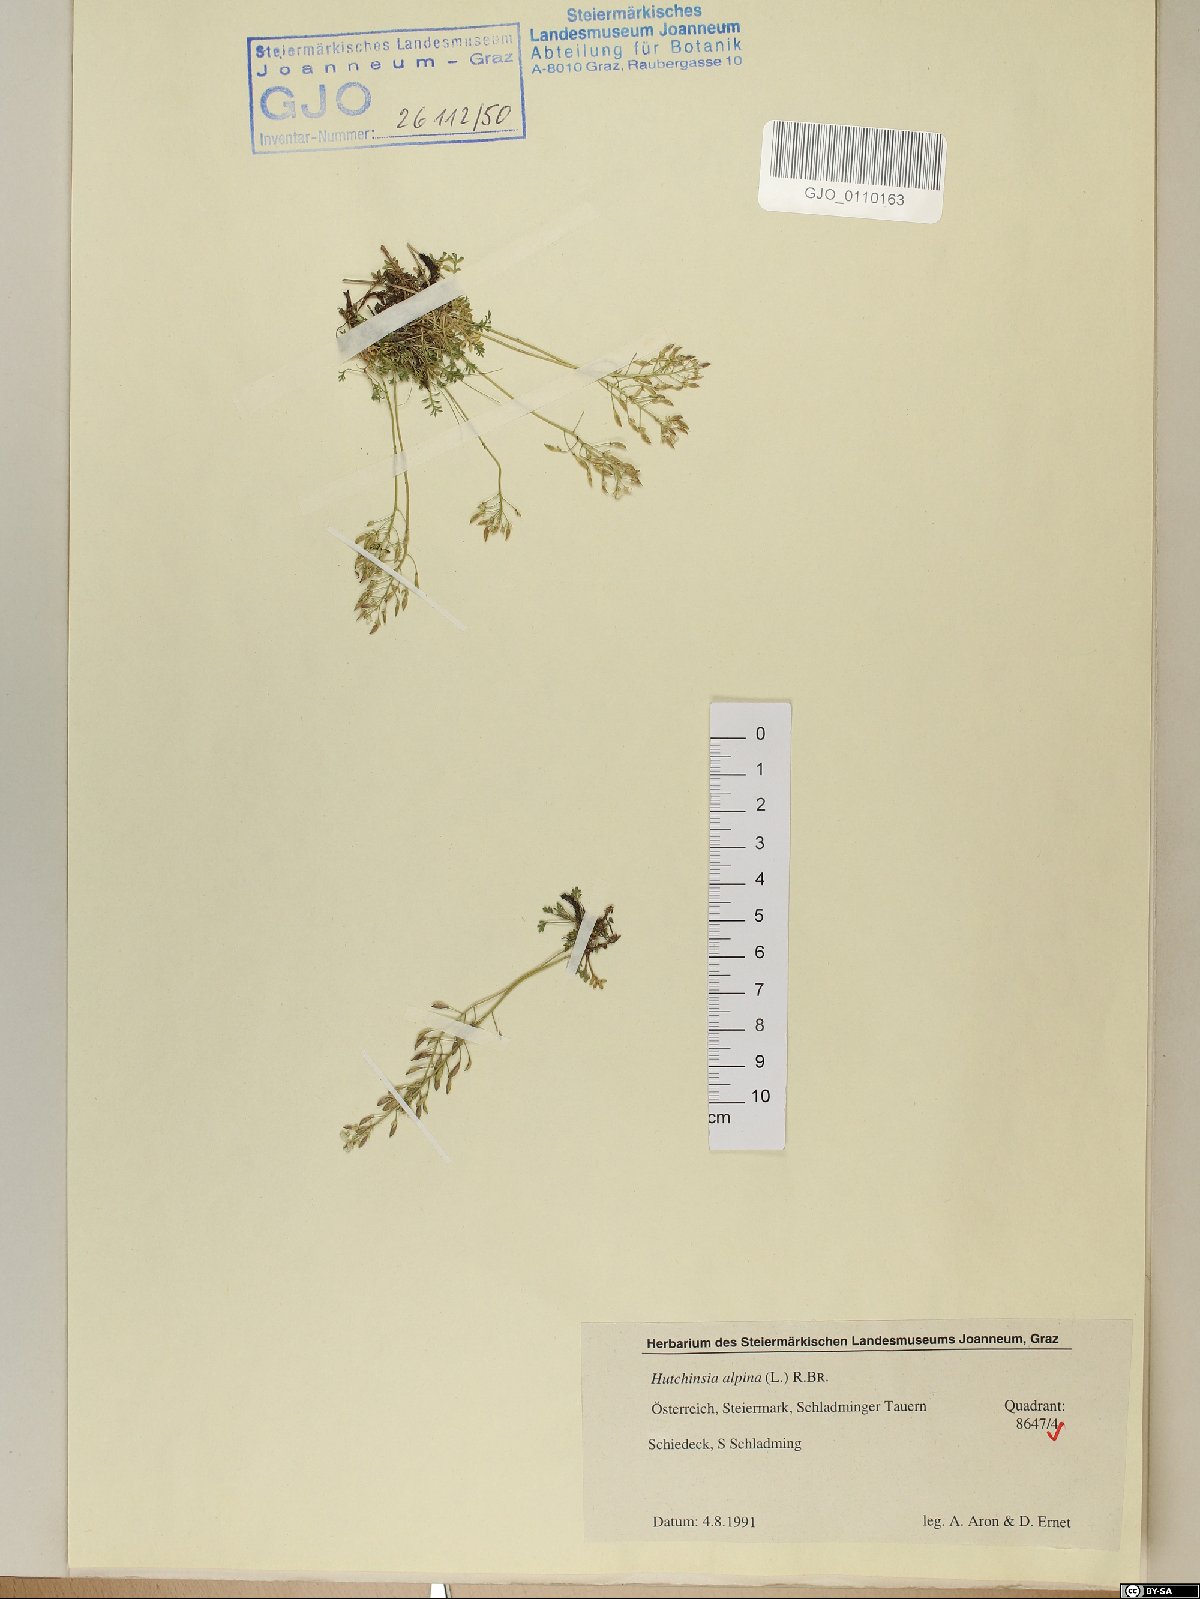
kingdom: Plantae
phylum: Tracheophyta
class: Magnoliopsida
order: Brassicales
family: Brassicaceae
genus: Hornungia
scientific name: Hornungia alpina
